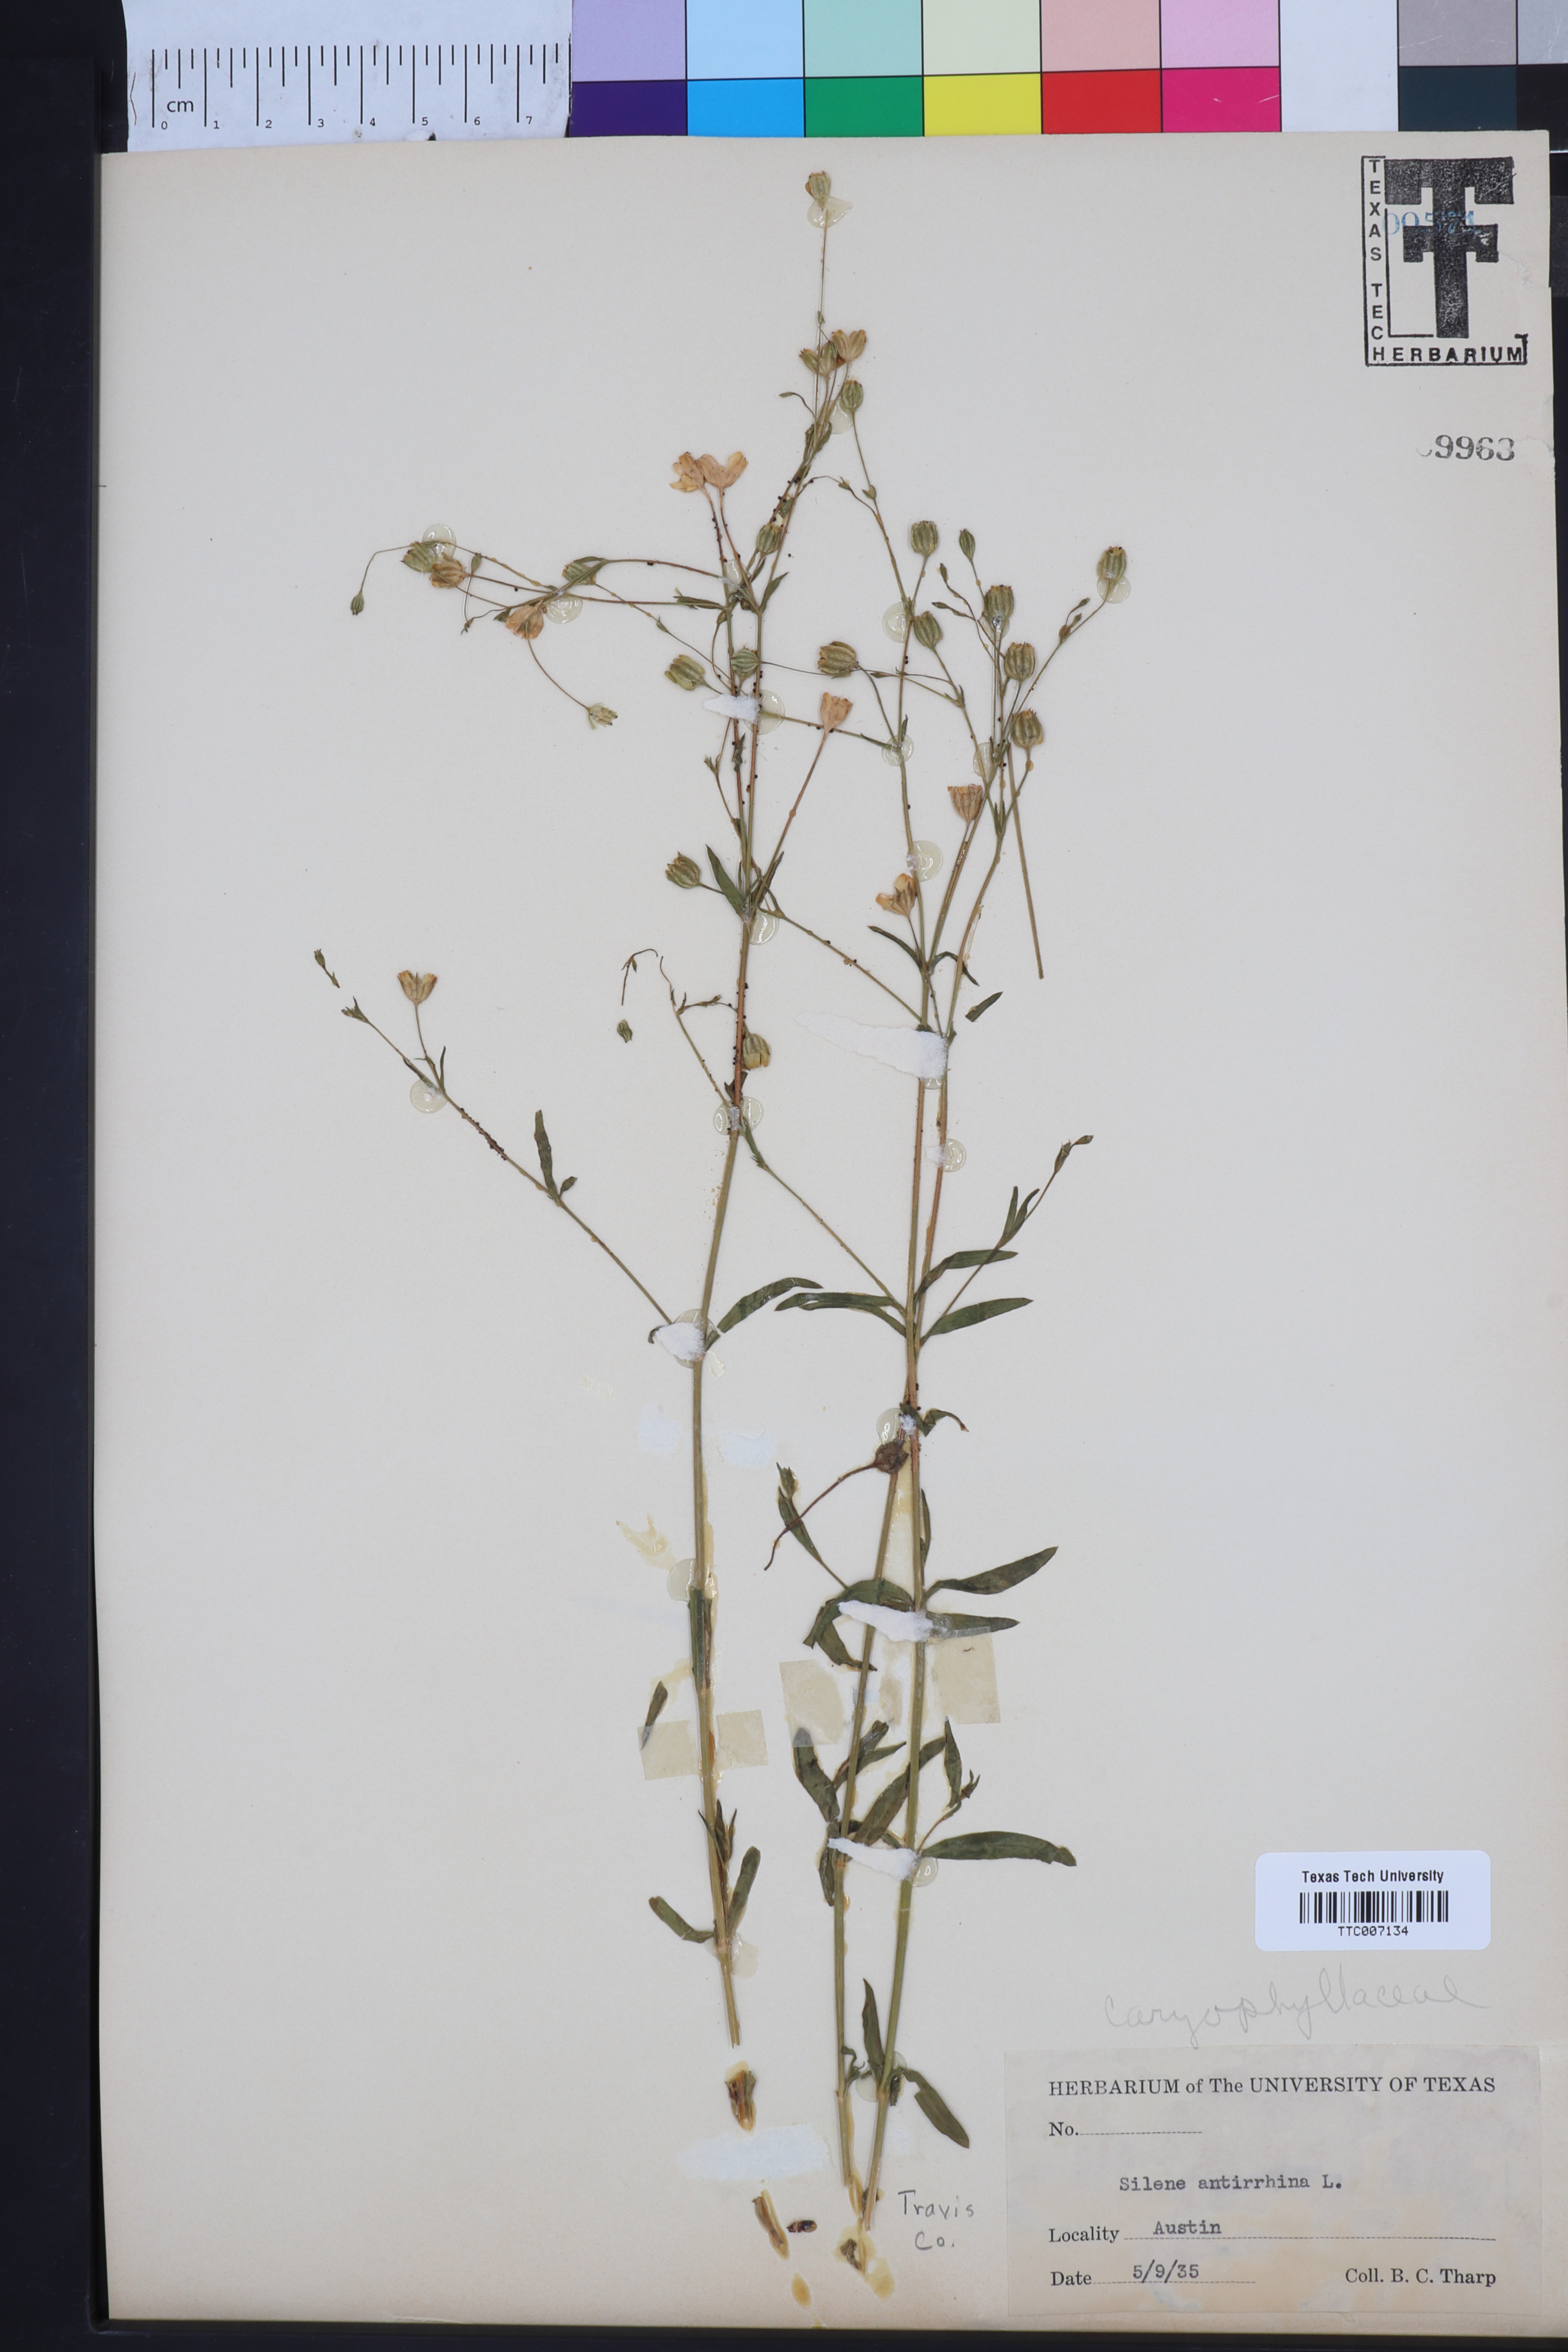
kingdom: Plantae
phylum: Tracheophyta
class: Magnoliopsida
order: Caryophyllales
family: Caryophyllaceae
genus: Silene
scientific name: Silene antirrhina
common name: Sleepy catchfly
